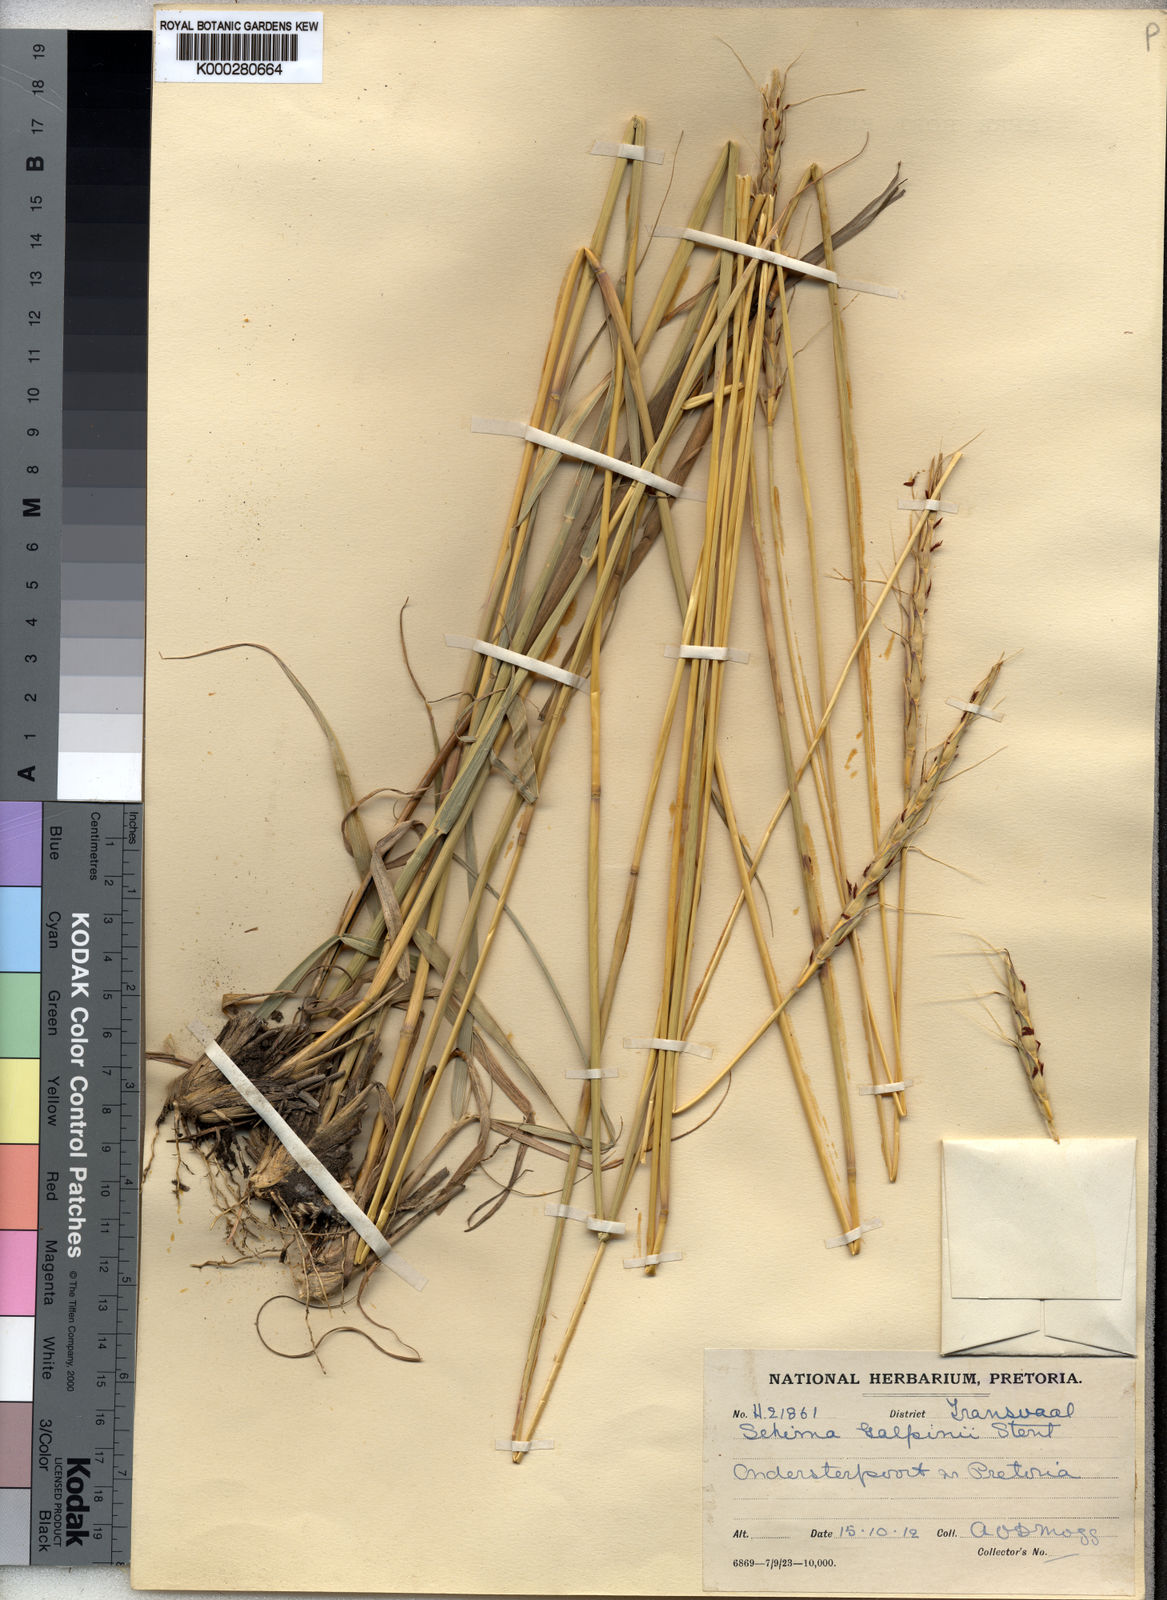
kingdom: Plantae
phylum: Tracheophyta
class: Liliopsida
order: Poales
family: Poaceae
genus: Sehima
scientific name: Sehima galpinii
